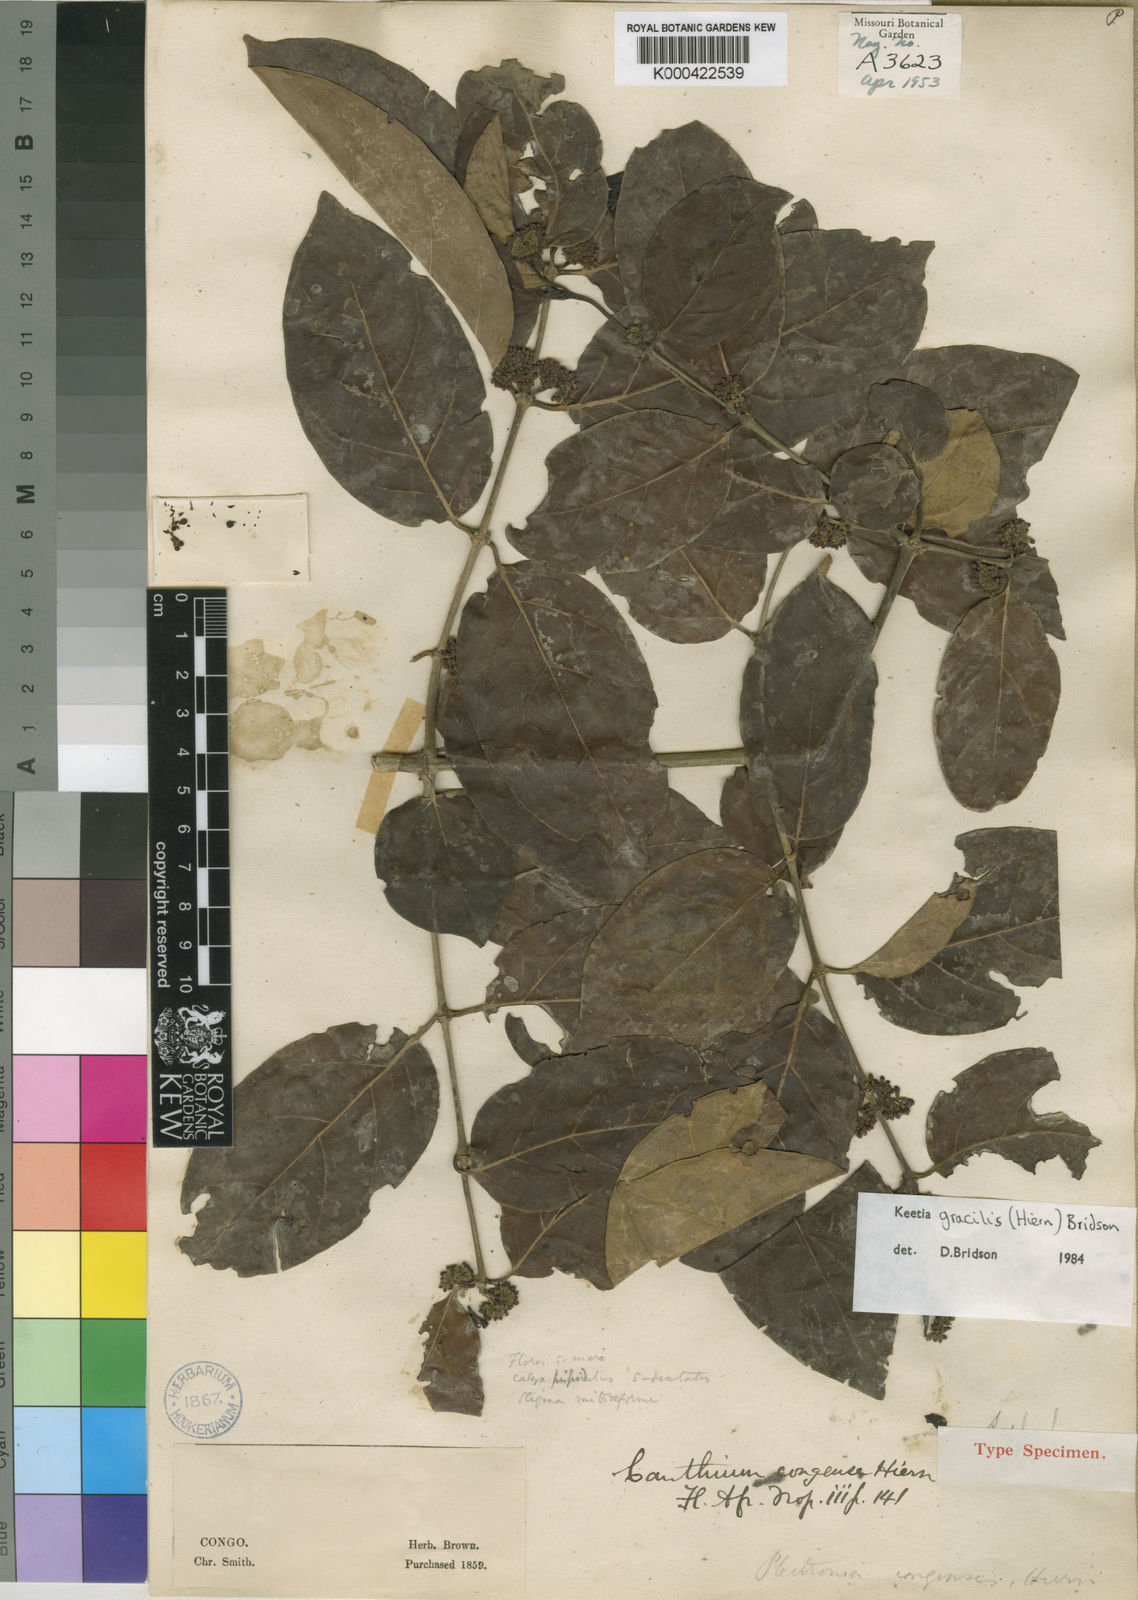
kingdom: Plantae
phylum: Tracheophyta
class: Magnoliopsida
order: Gentianales
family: Rubiaceae
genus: Keetia
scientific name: Keetia gracilis
